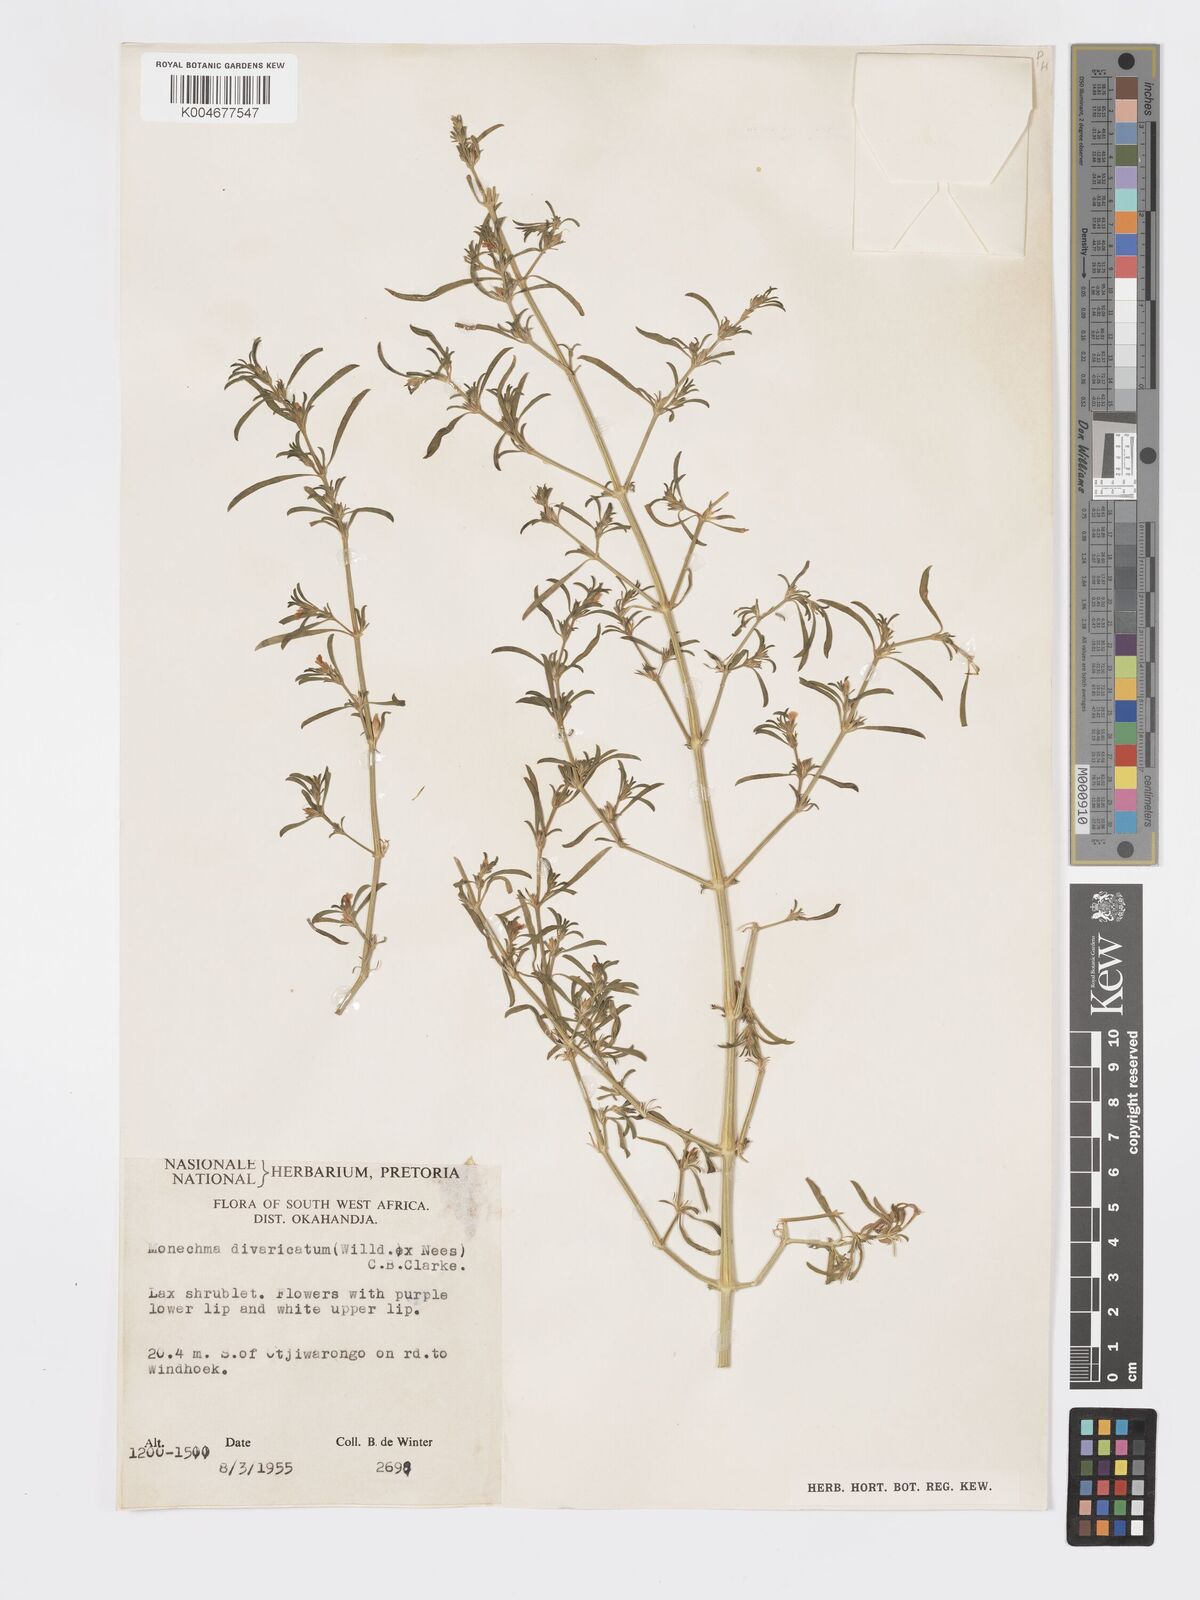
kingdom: Plantae
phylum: Tracheophyta
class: Magnoliopsida
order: Lamiales
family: Acanthaceae
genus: Pogonospermum
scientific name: Pogonospermum
